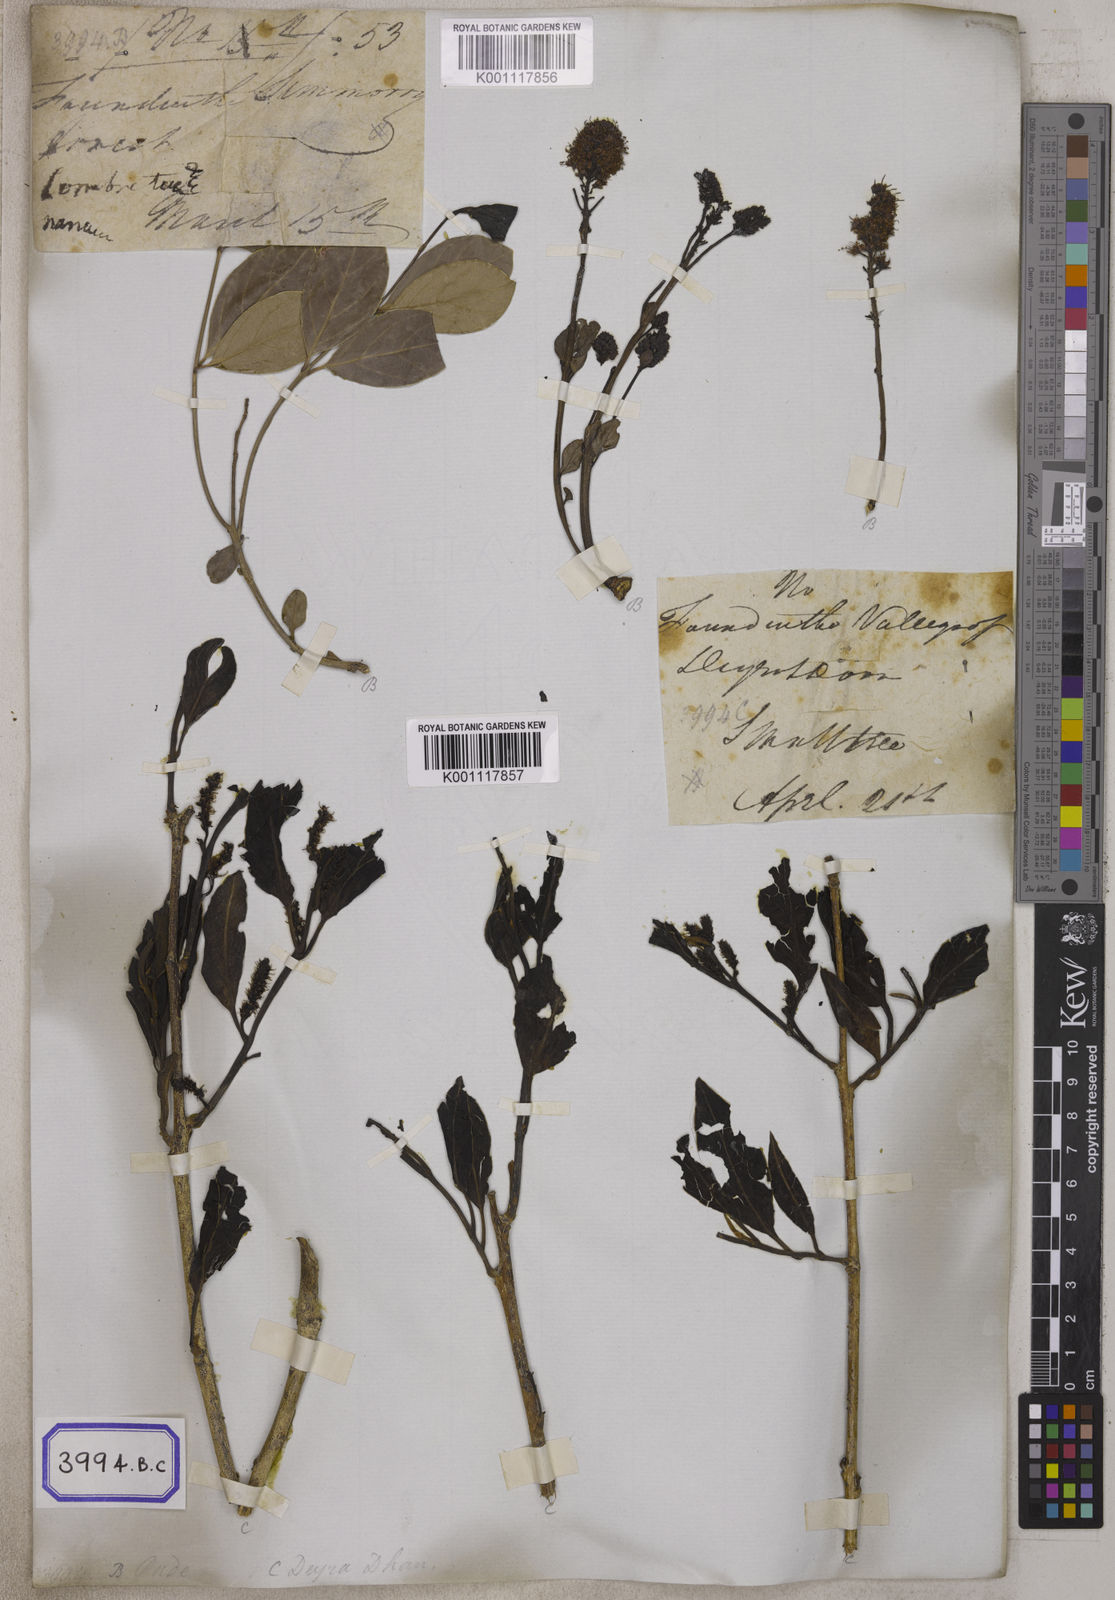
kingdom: Plantae
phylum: Tracheophyta
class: Magnoliopsida
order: Myrtales
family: Combretaceae
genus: Combretum
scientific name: Combretum
